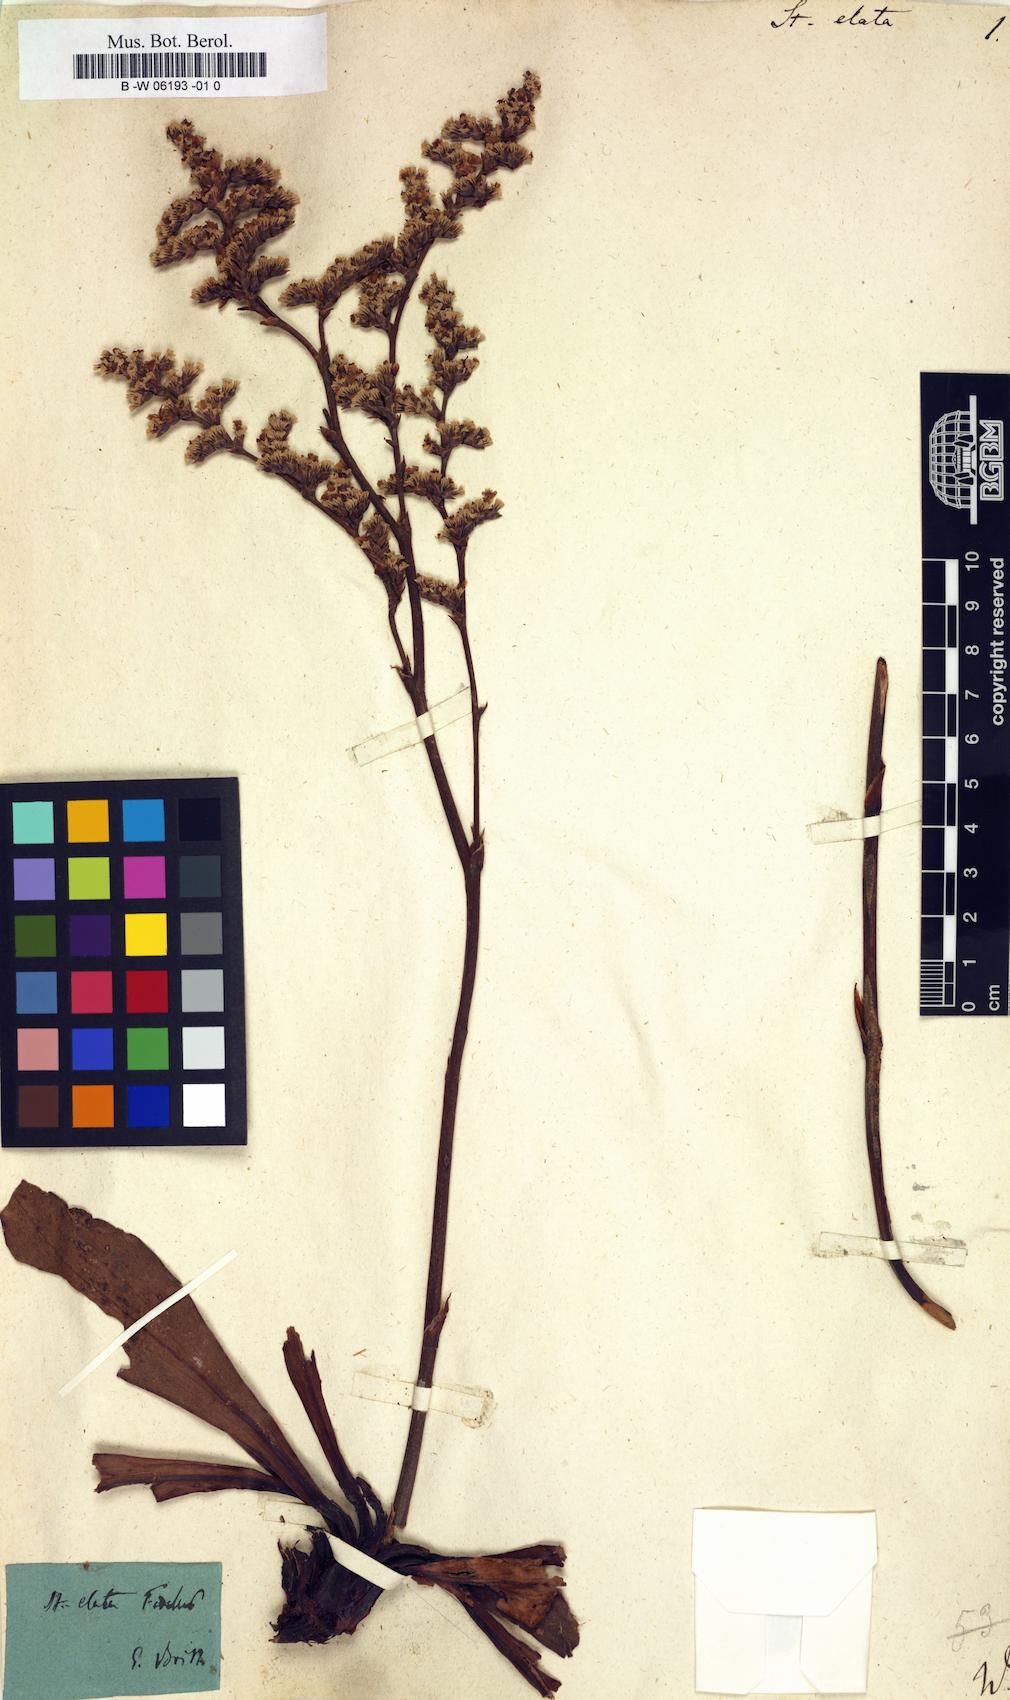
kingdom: Plantae
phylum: Tracheophyta
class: Magnoliopsida
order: Caryophyllales
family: Plumbaginaceae
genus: Goniolimon
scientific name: Goniolimon elatum
